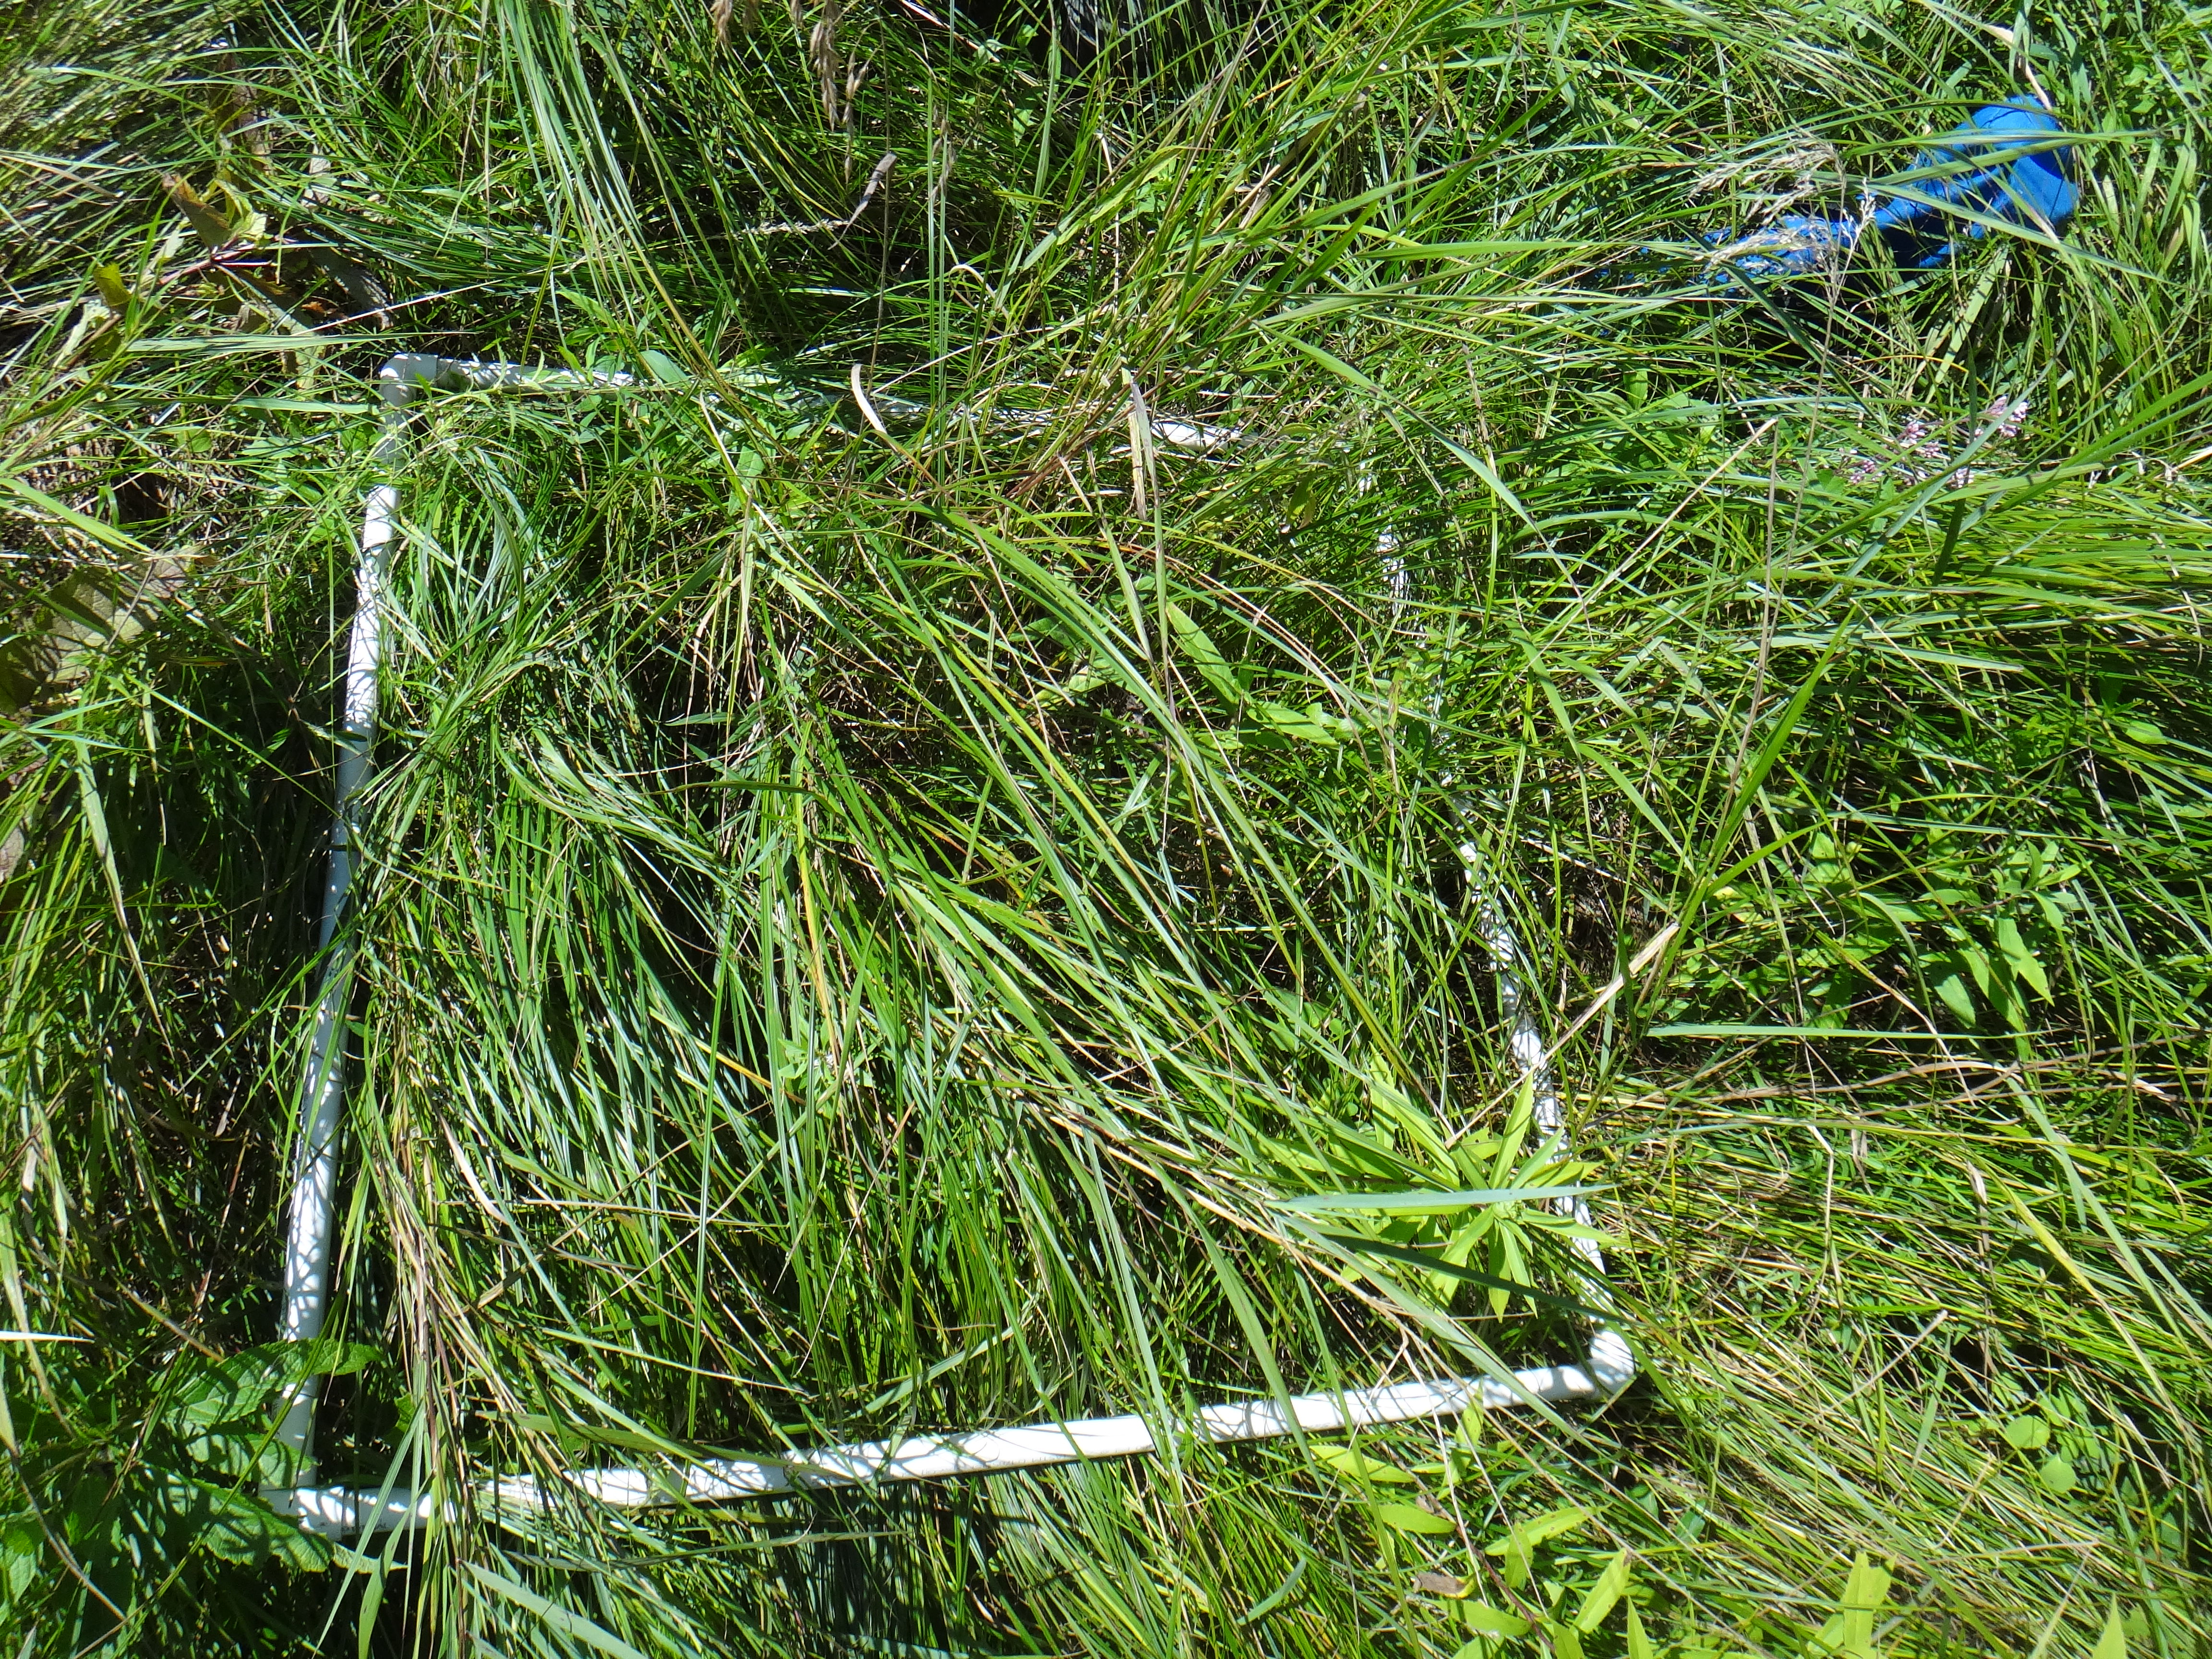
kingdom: Plantae
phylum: Tracheophyta
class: Magnoliopsida
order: Fabales
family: Fabaceae
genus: Lathyrus
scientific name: Lathyrus palustris
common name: Marsh pea
